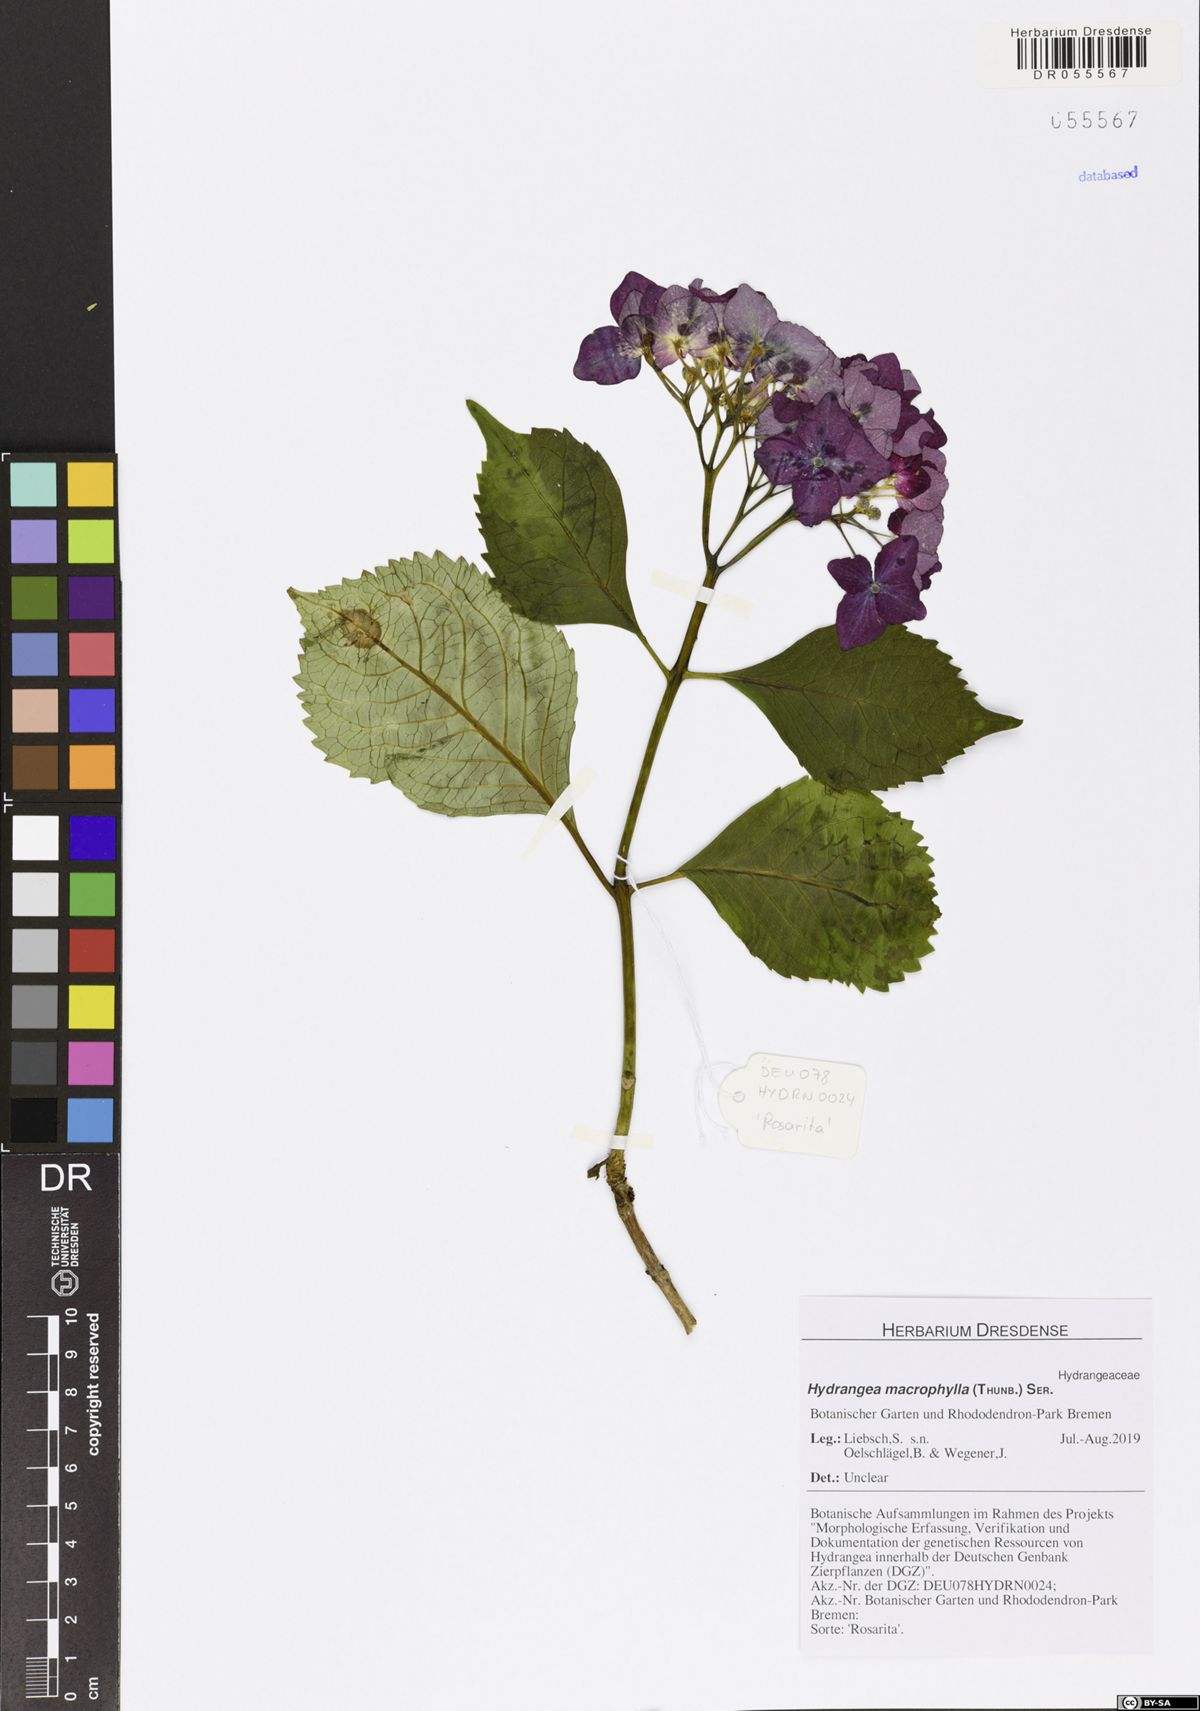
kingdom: Plantae
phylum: Tracheophyta
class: Magnoliopsida
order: Cornales
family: Hydrangeaceae
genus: Hydrangea
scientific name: Hydrangea macrophylla
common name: Hydrangea
